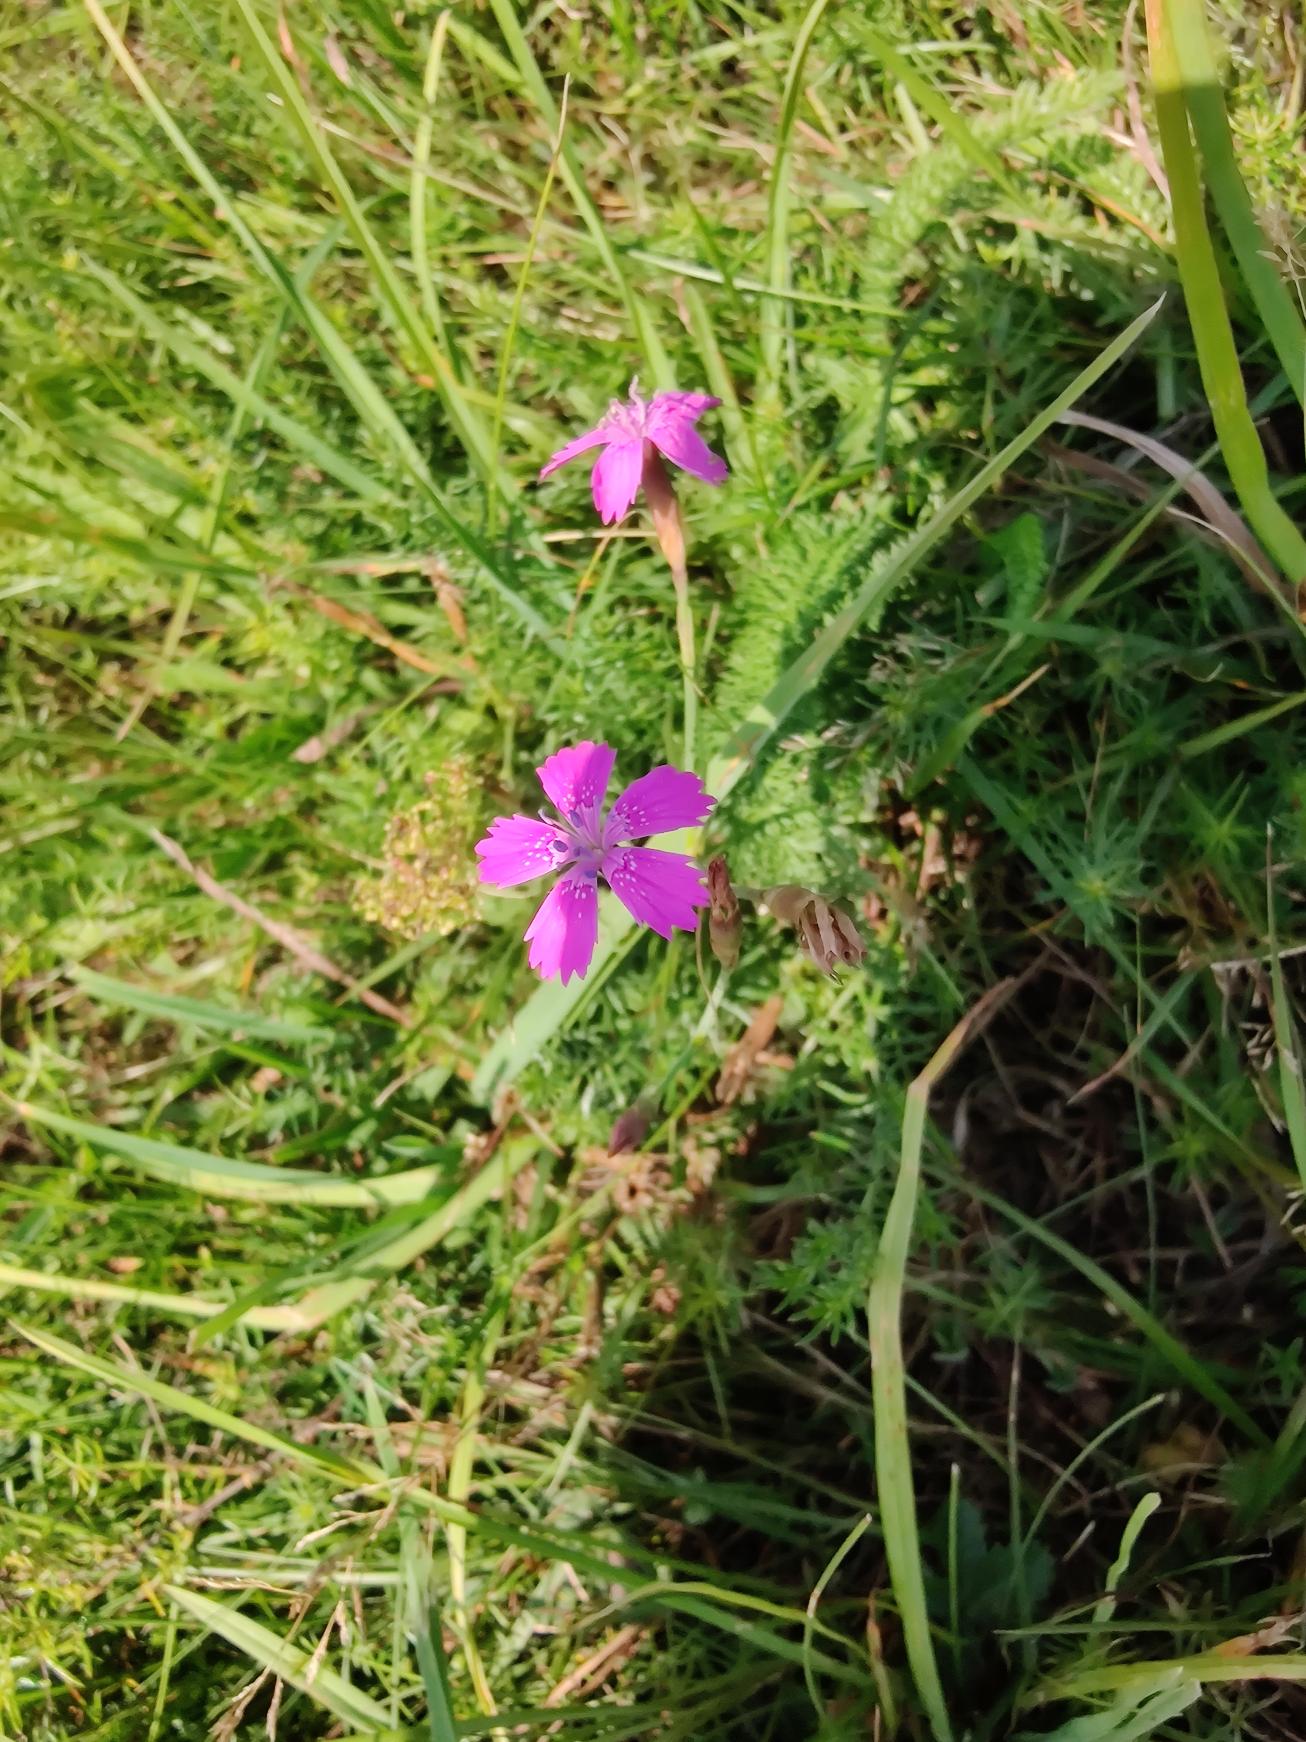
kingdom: Plantae
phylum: Tracheophyta
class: Magnoliopsida
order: Caryophyllales
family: Caryophyllaceae
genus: Dianthus
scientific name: Dianthus deltoides
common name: Bakke-nellike
